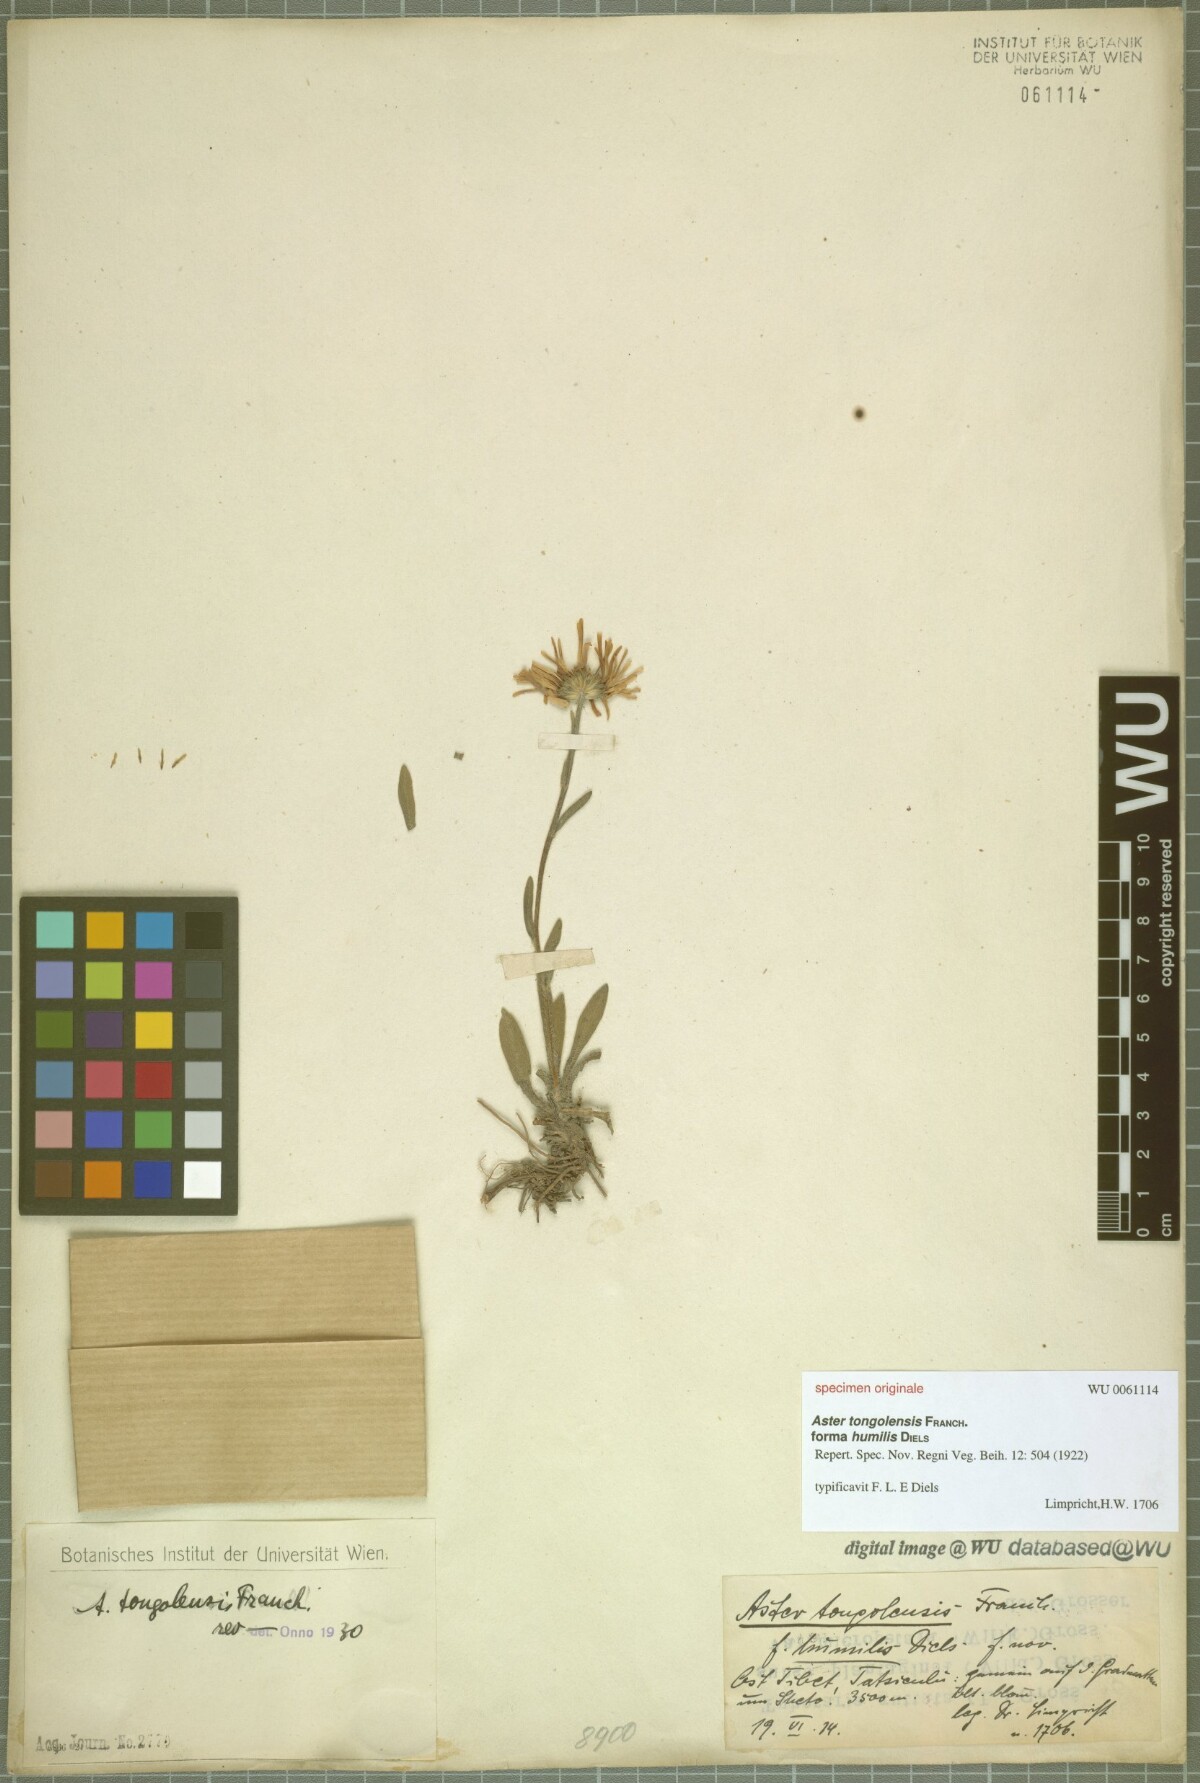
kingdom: Plantae
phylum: Tracheophyta
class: Magnoliopsida
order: Asterales
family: Asteraceae
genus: Aster
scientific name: Aster tongolensis
